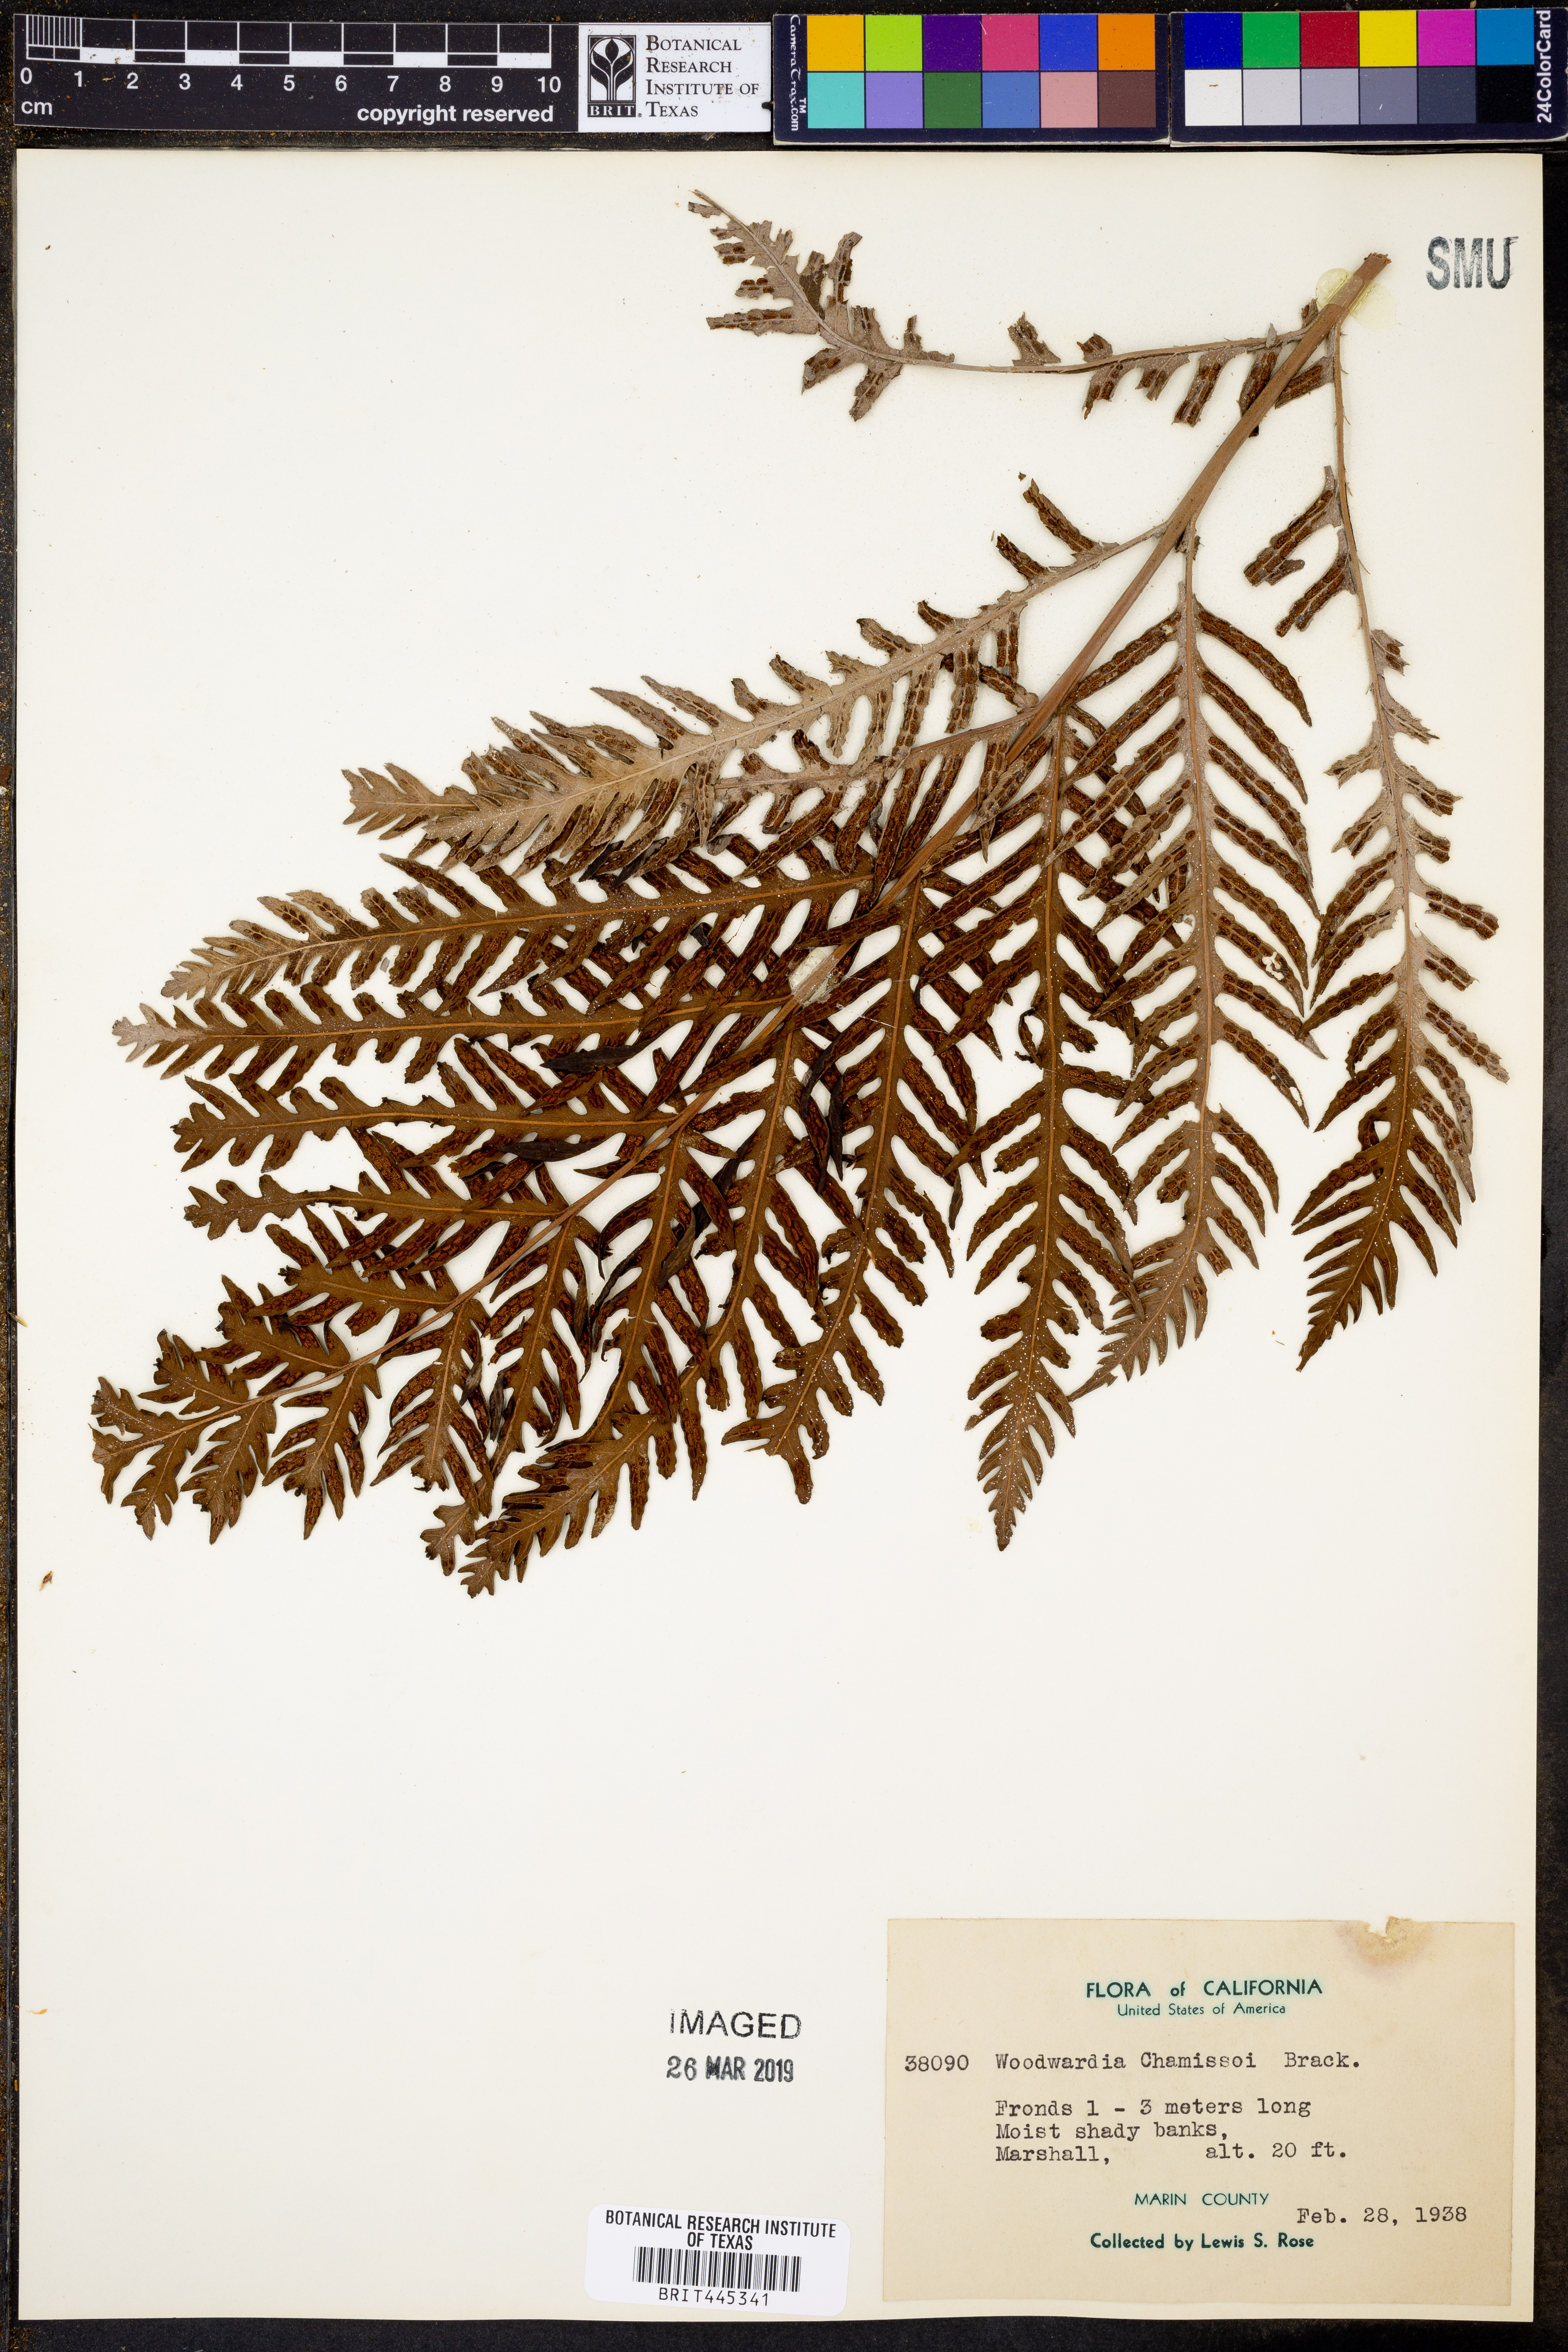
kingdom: Plantae
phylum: Tracheophyta
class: Polypodiopsida
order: Polypodiales
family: Blechnaceae
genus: Woodwardia
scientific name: Woodwardia fimbriata
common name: Giant chain fern
